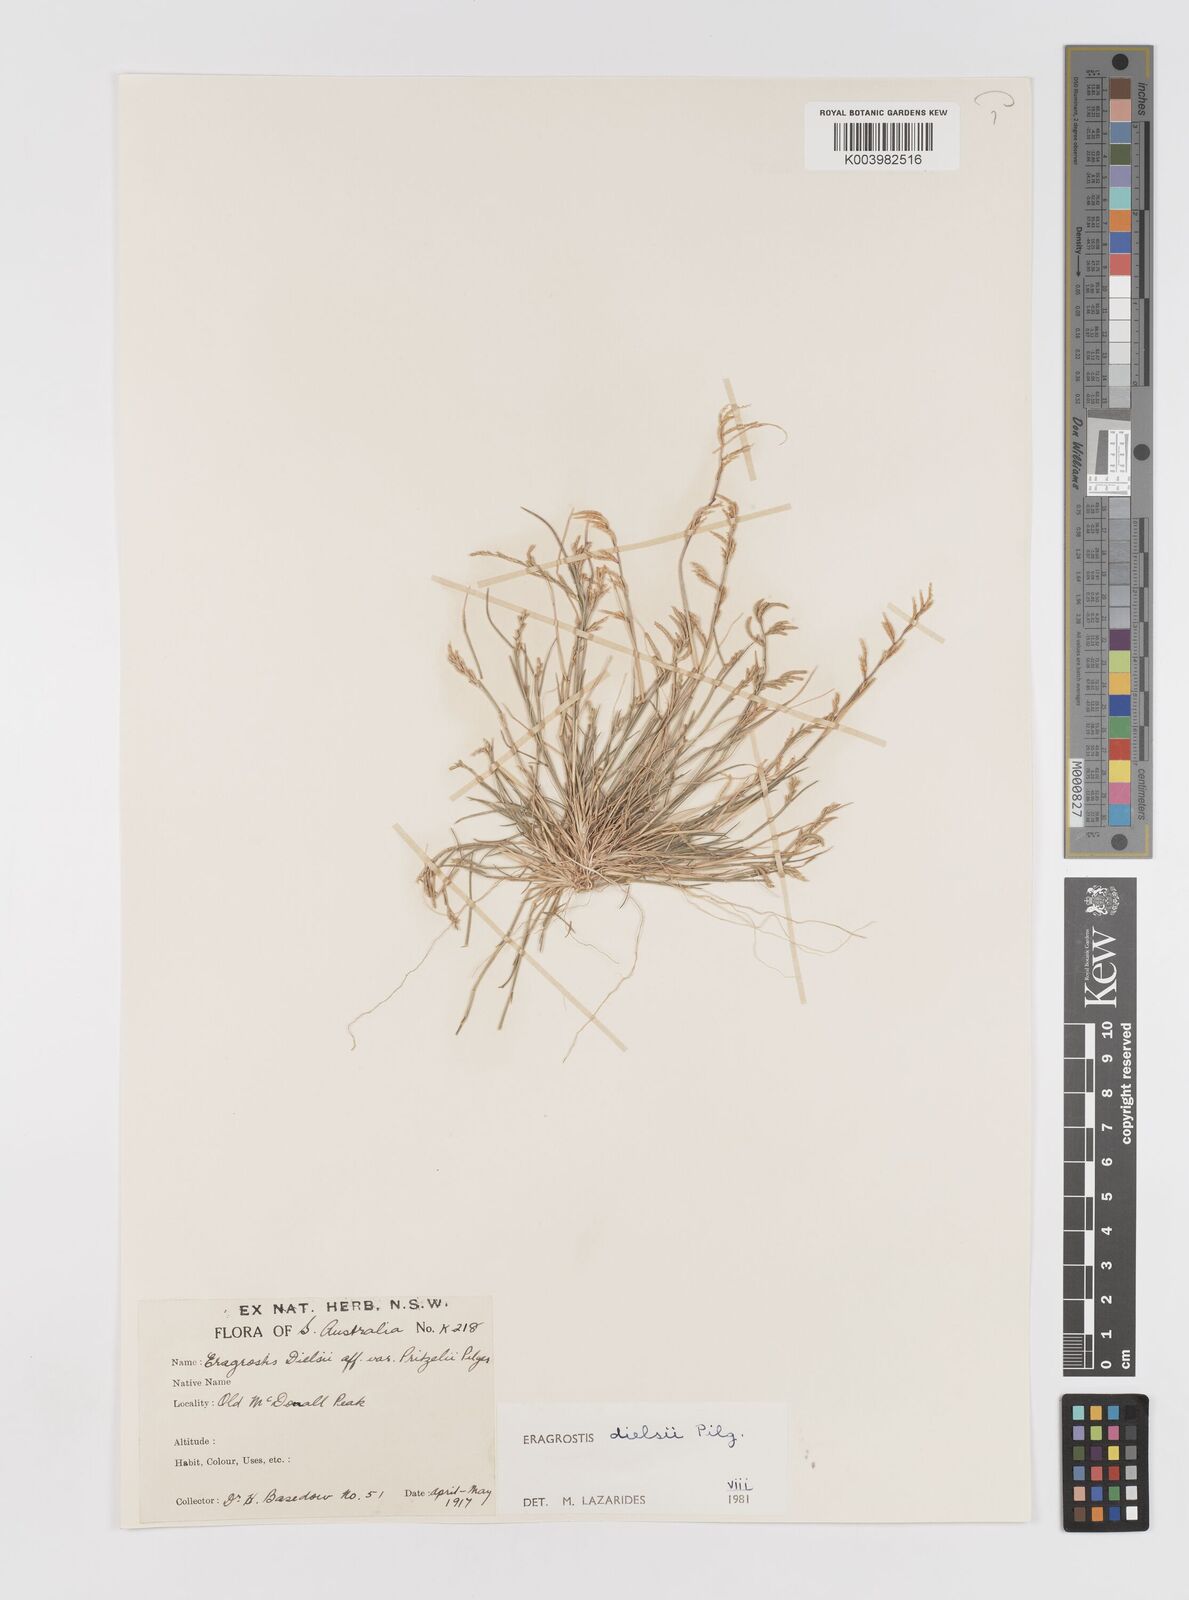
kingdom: Plantae
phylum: Tracheophyta
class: Liliopsida
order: Poales
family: Poaceae
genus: Eragrostis
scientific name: Eragrostis dielsii
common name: Lovegrass
